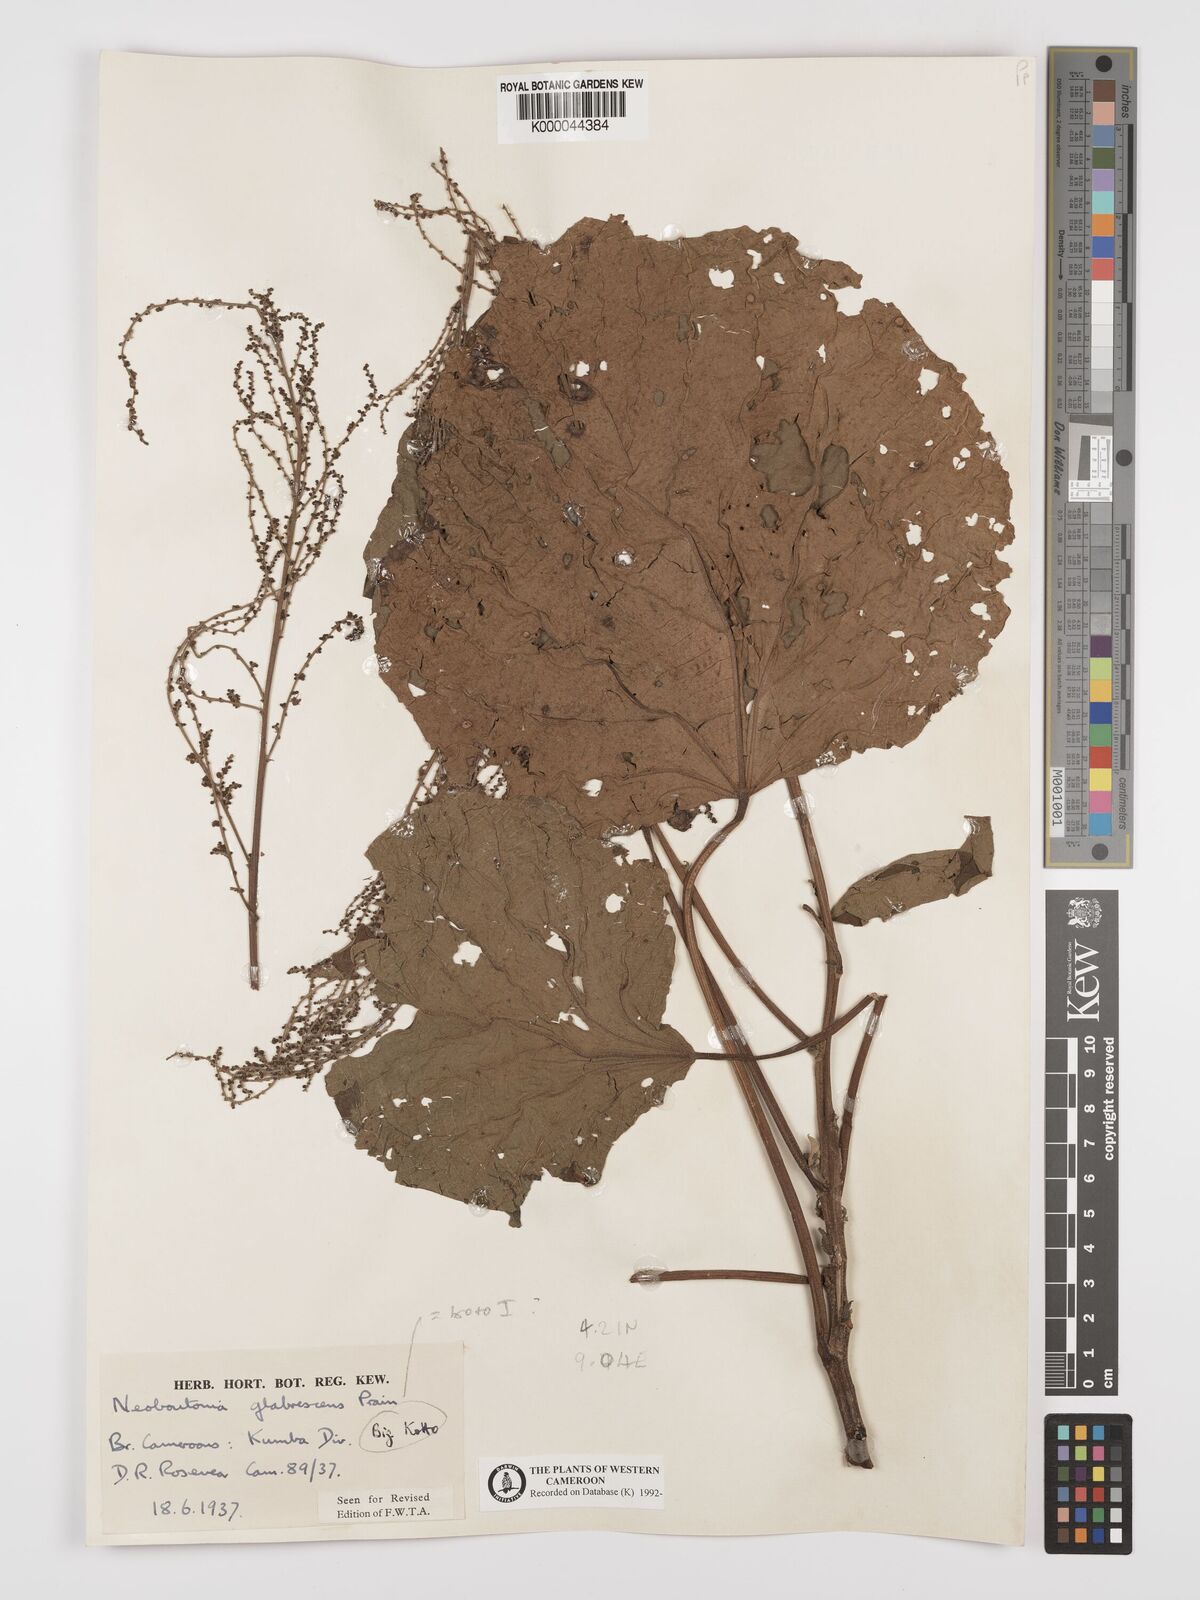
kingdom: Plantae
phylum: Tracheophyta
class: Magnoliopsida
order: Malpighiales
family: Euphorbiaceae
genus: Neoboutonia
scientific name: Neoboutonia mannii
